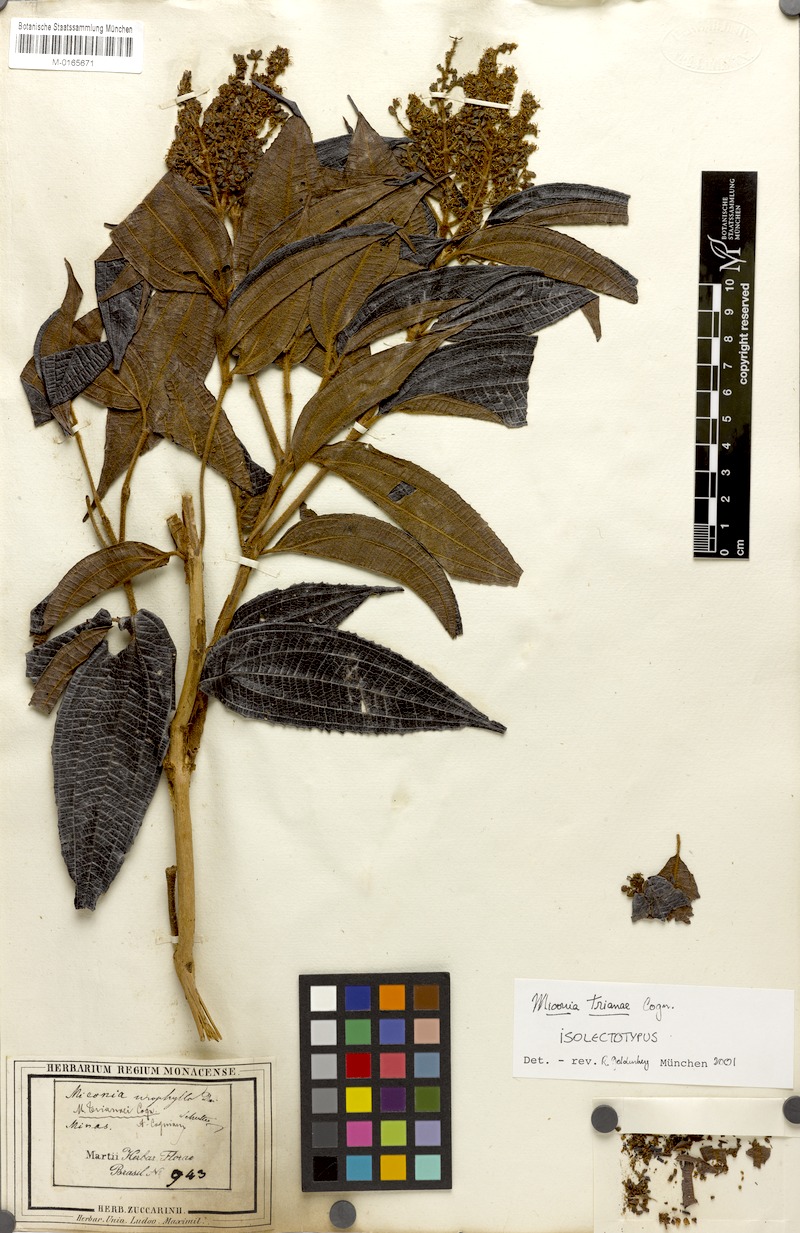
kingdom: Plantae
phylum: Tracheophyta
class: Magnoliopsida
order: Myrtales
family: Melastomataceae
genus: Miconia
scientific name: Miconia trianae
